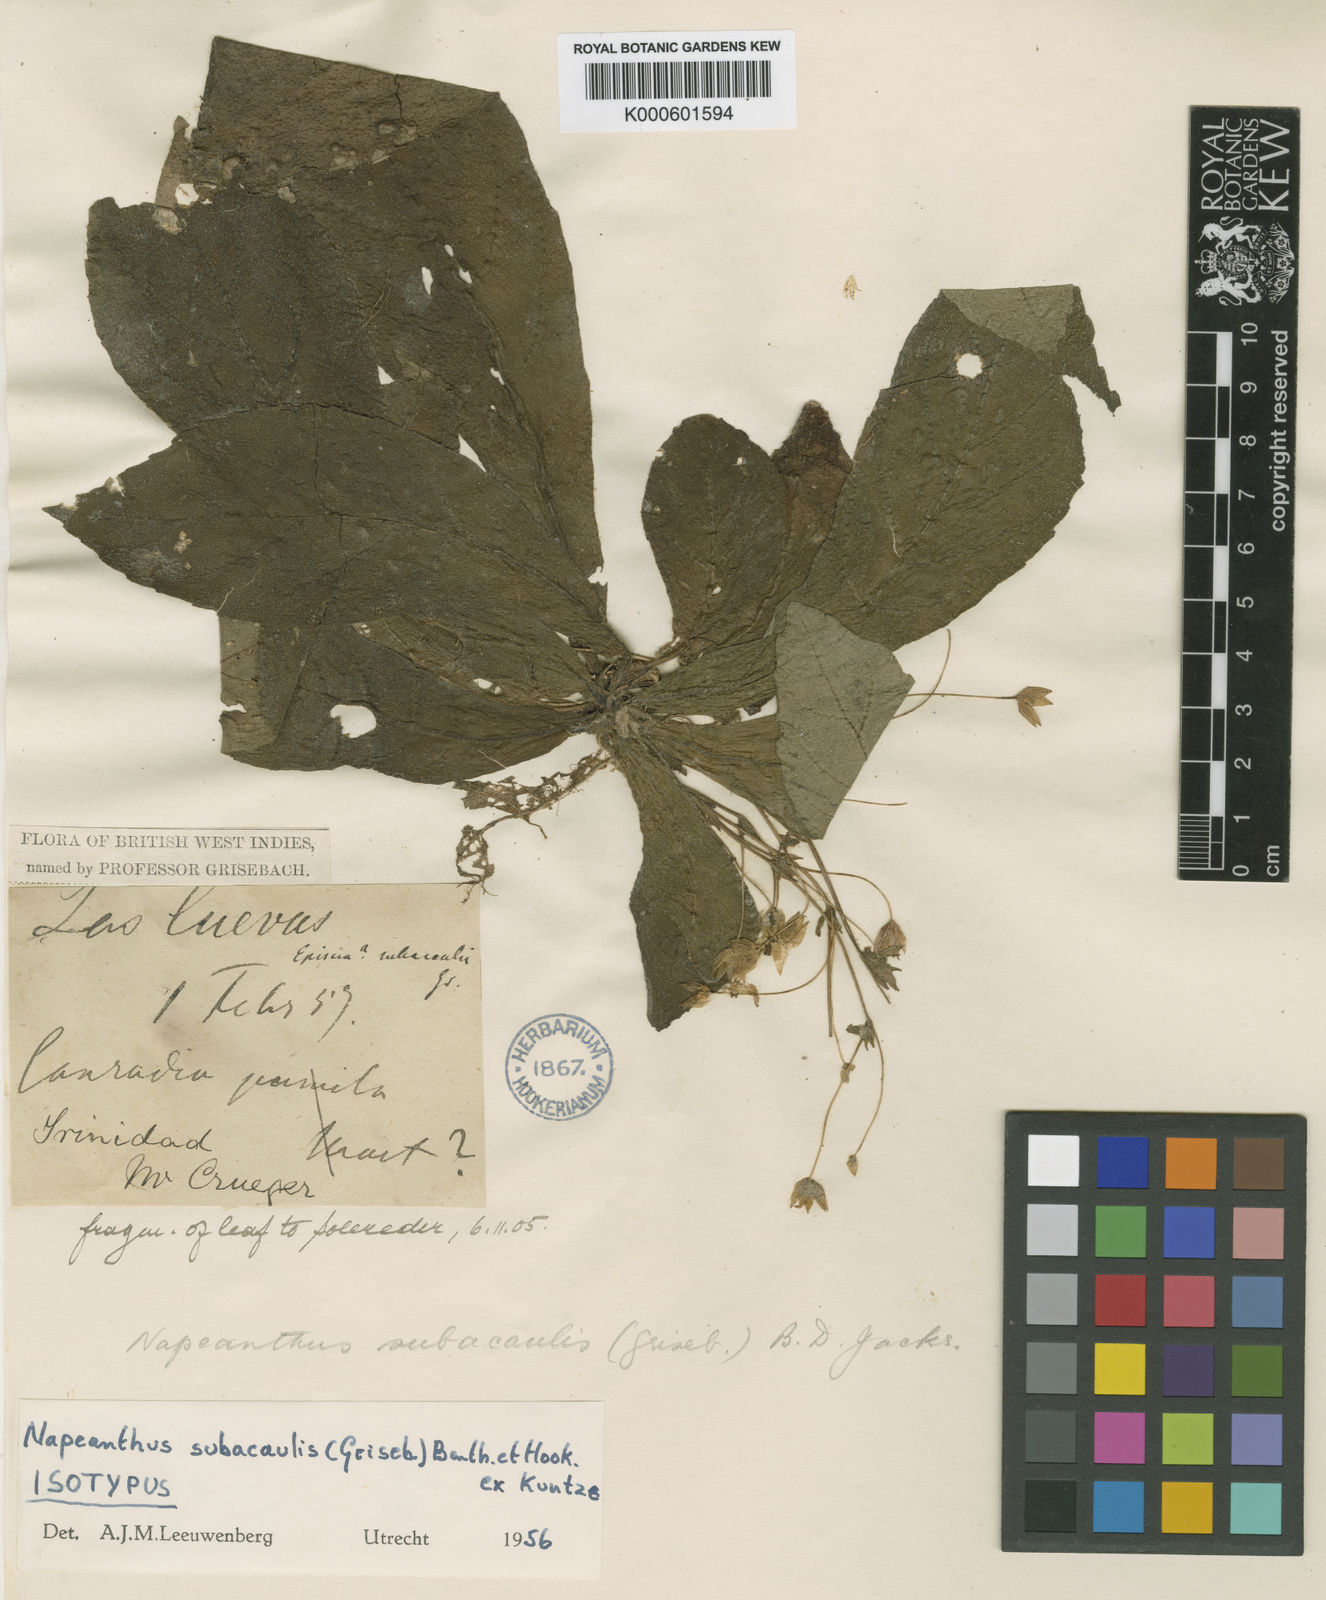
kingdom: Plantae
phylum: Tracheophyta
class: Magnoliopsida
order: Lamiales
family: Gesneriaceae
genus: Napeanthus
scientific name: Napeanthus subacaulis
